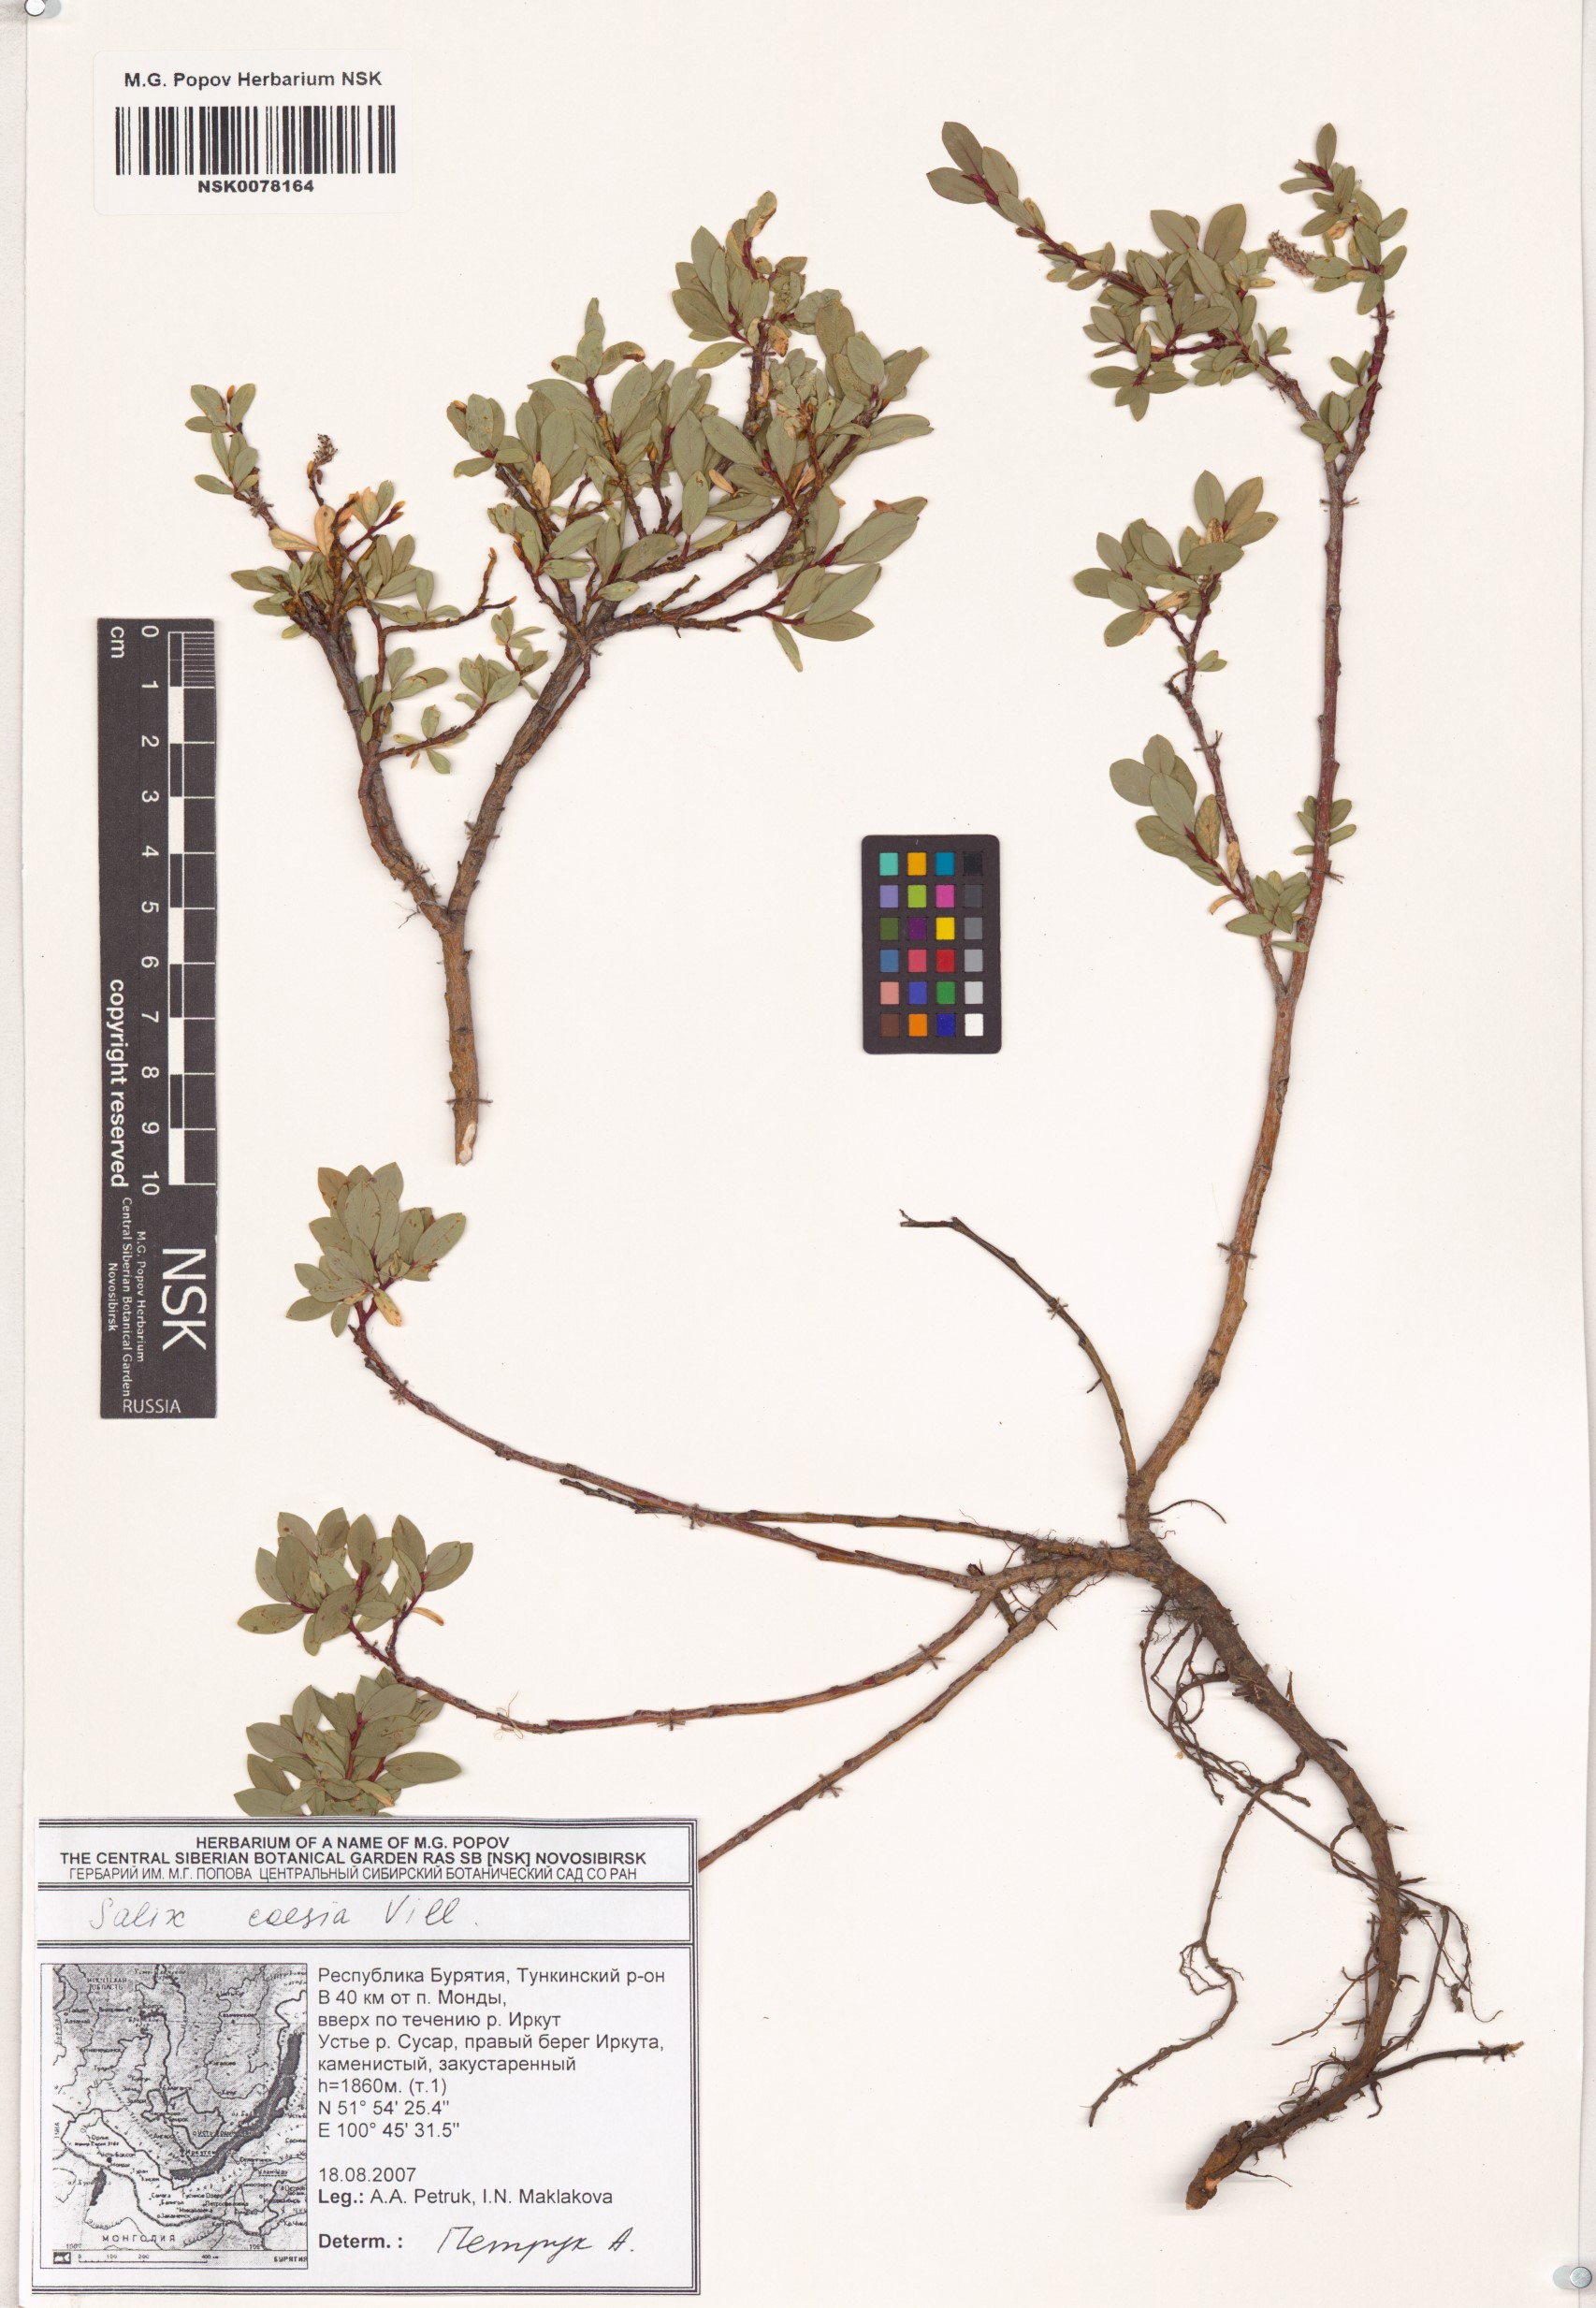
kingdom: Plantae
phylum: Tracheophyta
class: Magnoliopsida
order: Malpighiales
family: Salicaceae
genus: Salix
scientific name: Salix caesia
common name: Blue willow
